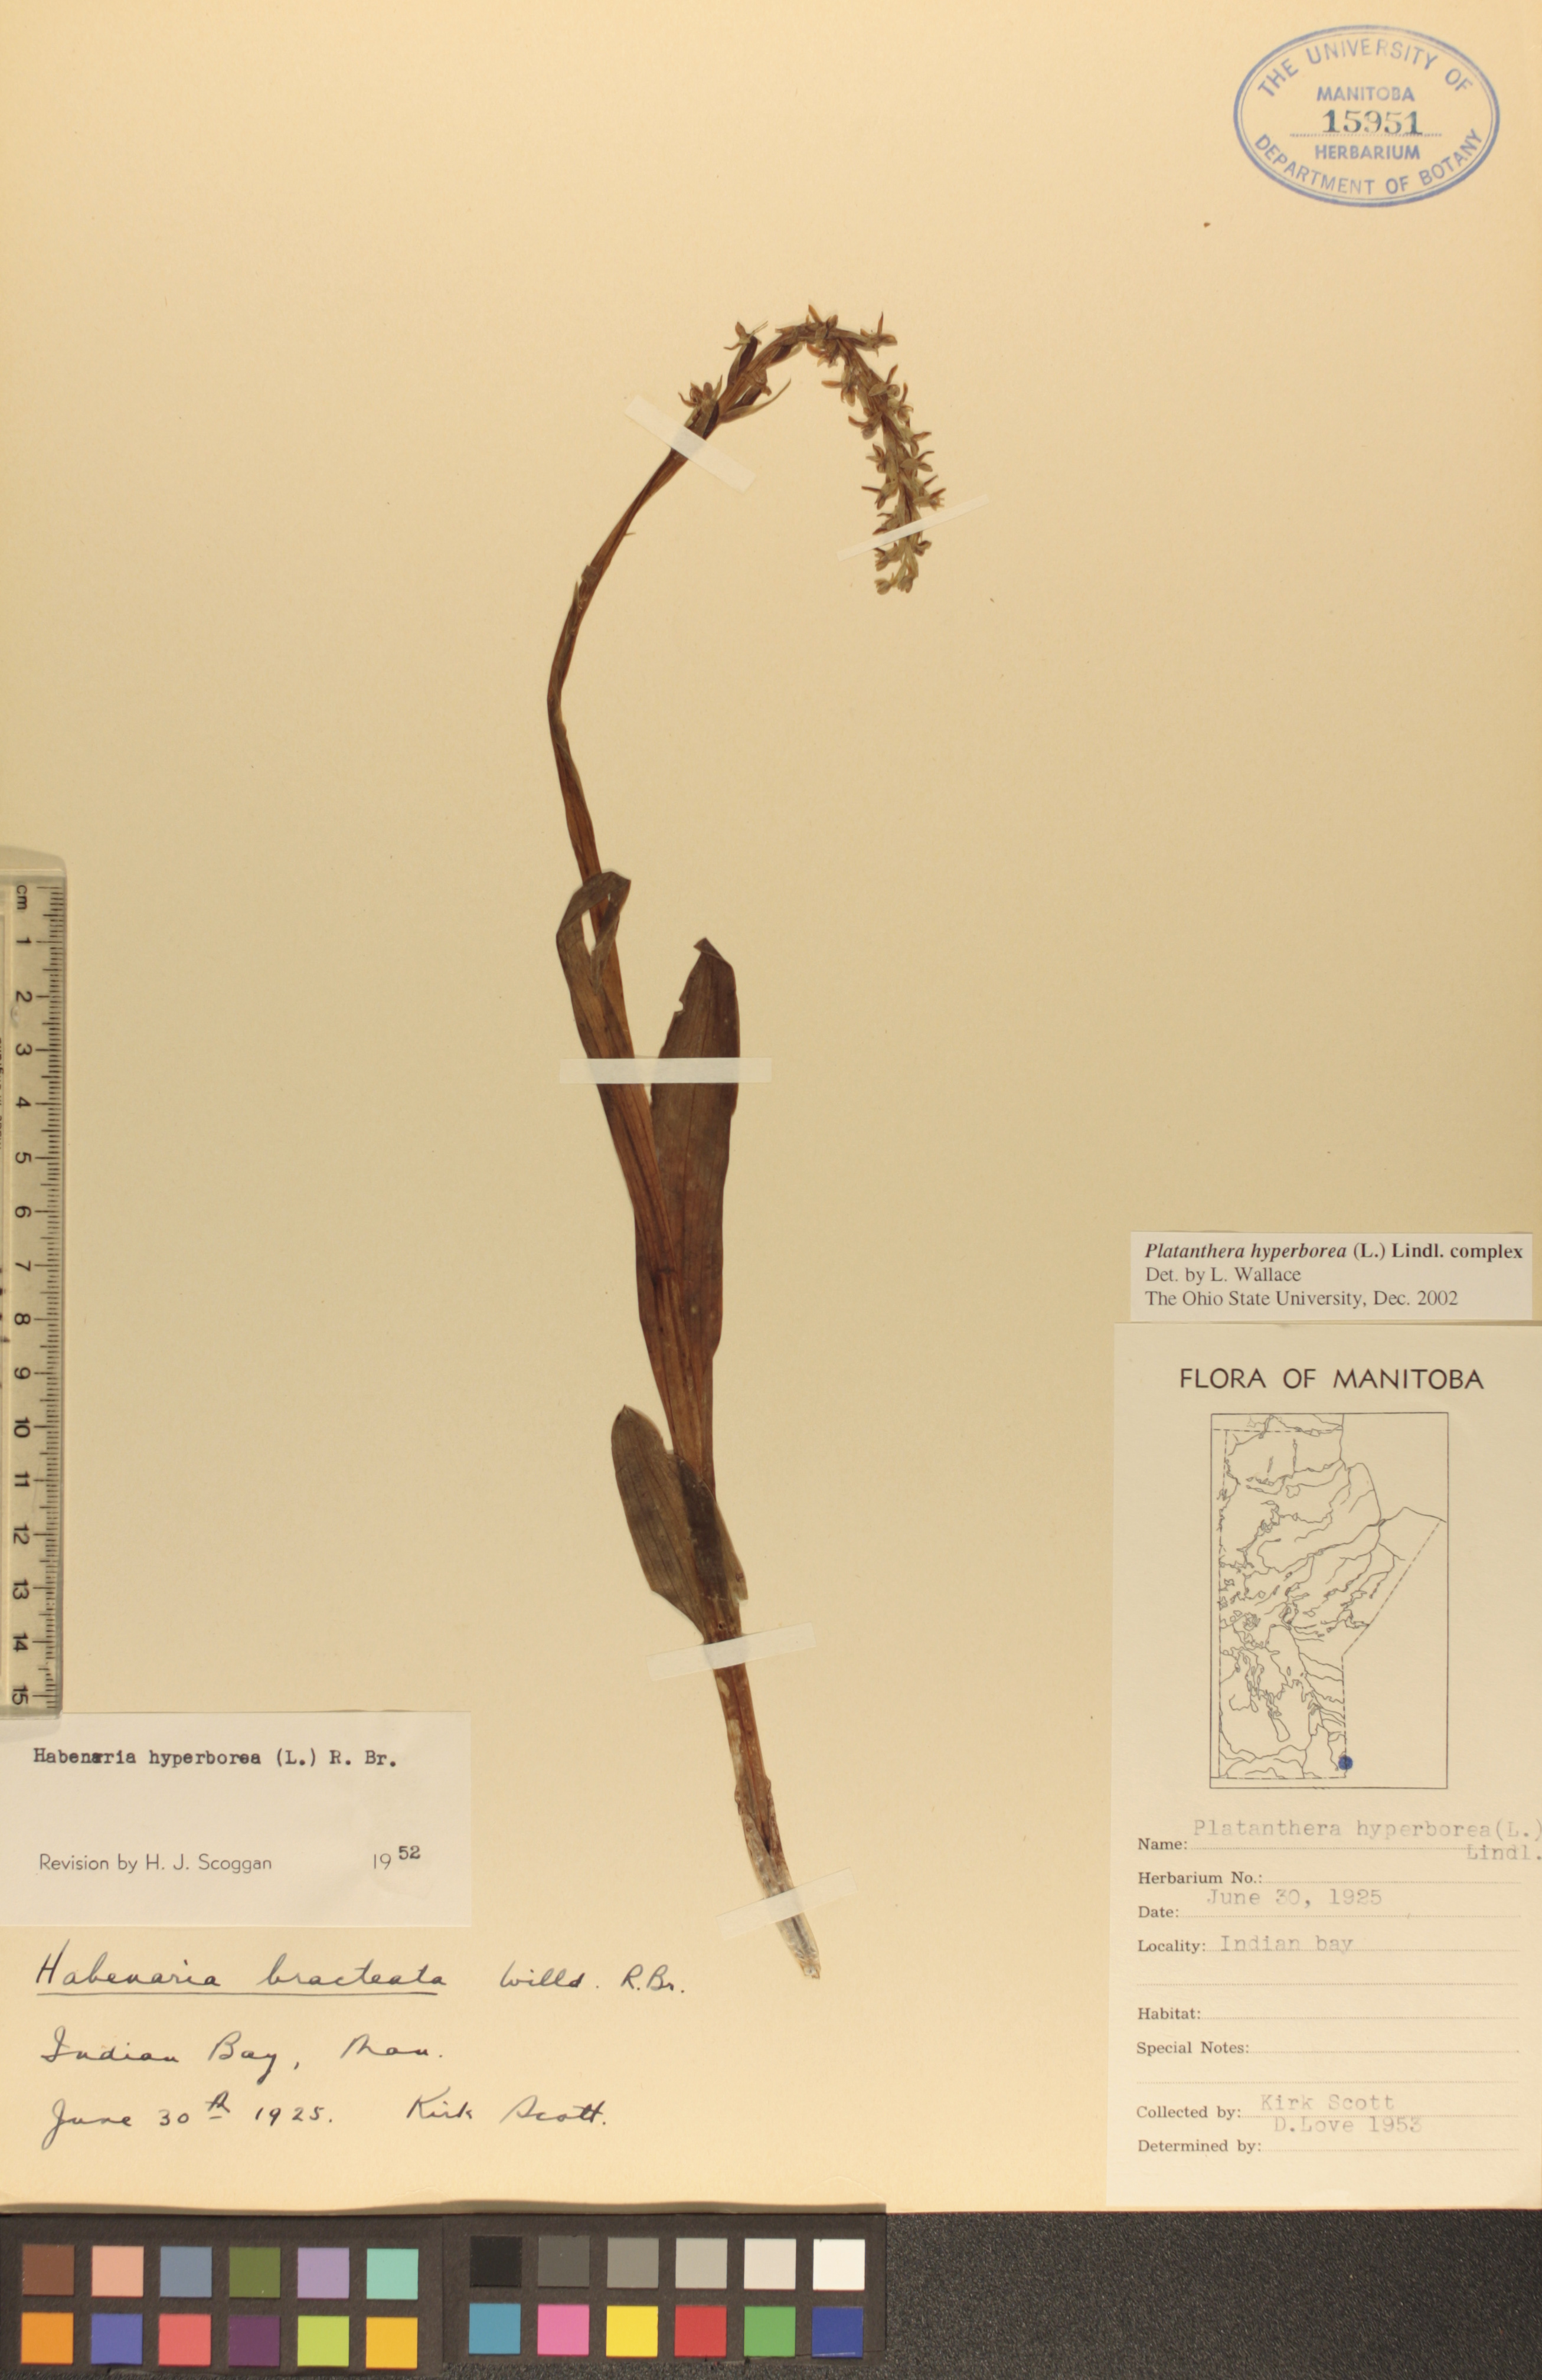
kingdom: Plantae
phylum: Tracheophyta
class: Liliopsida
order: Asparagales
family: Orchidaceae
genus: Platanthera
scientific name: Platanthera hyperborea
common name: Northern green orchid
